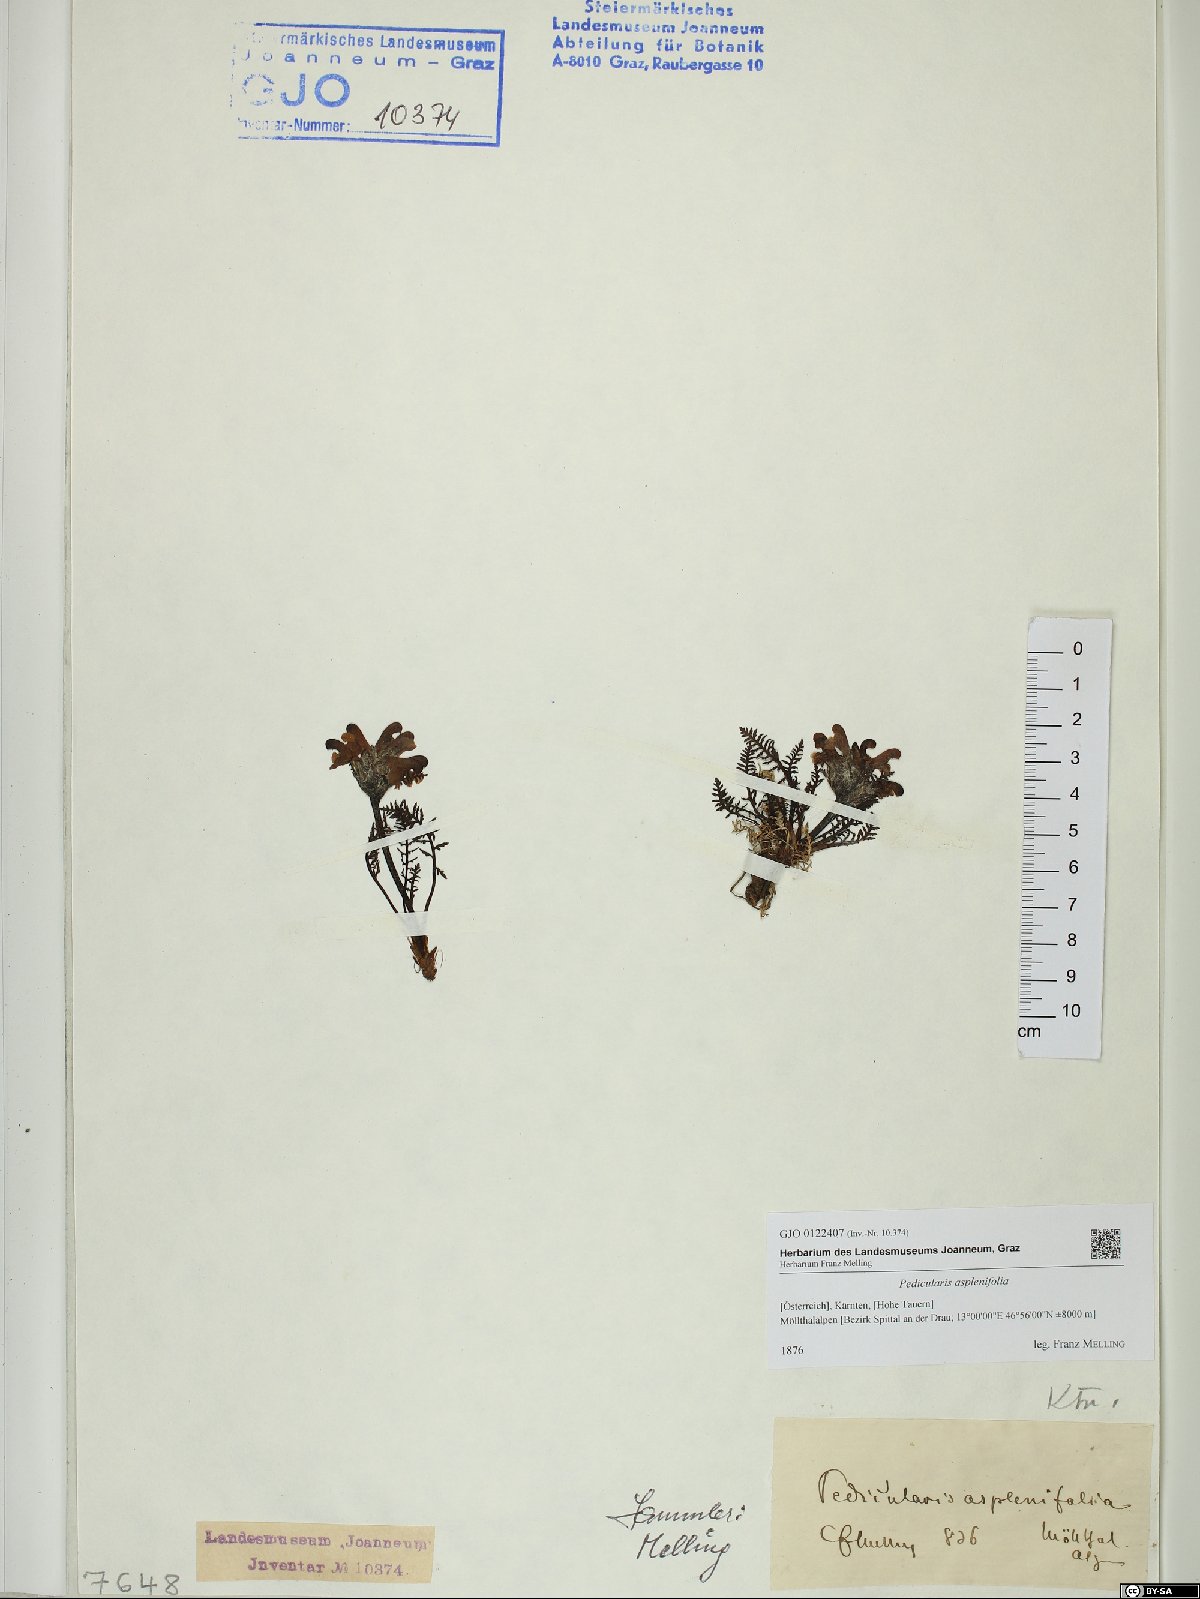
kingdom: Plantae
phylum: Tracheophyta
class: Magnoliopsida
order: Lamiales
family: Orobanchaceae
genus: Pedicularis
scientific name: Pedicularis asplenifolia
